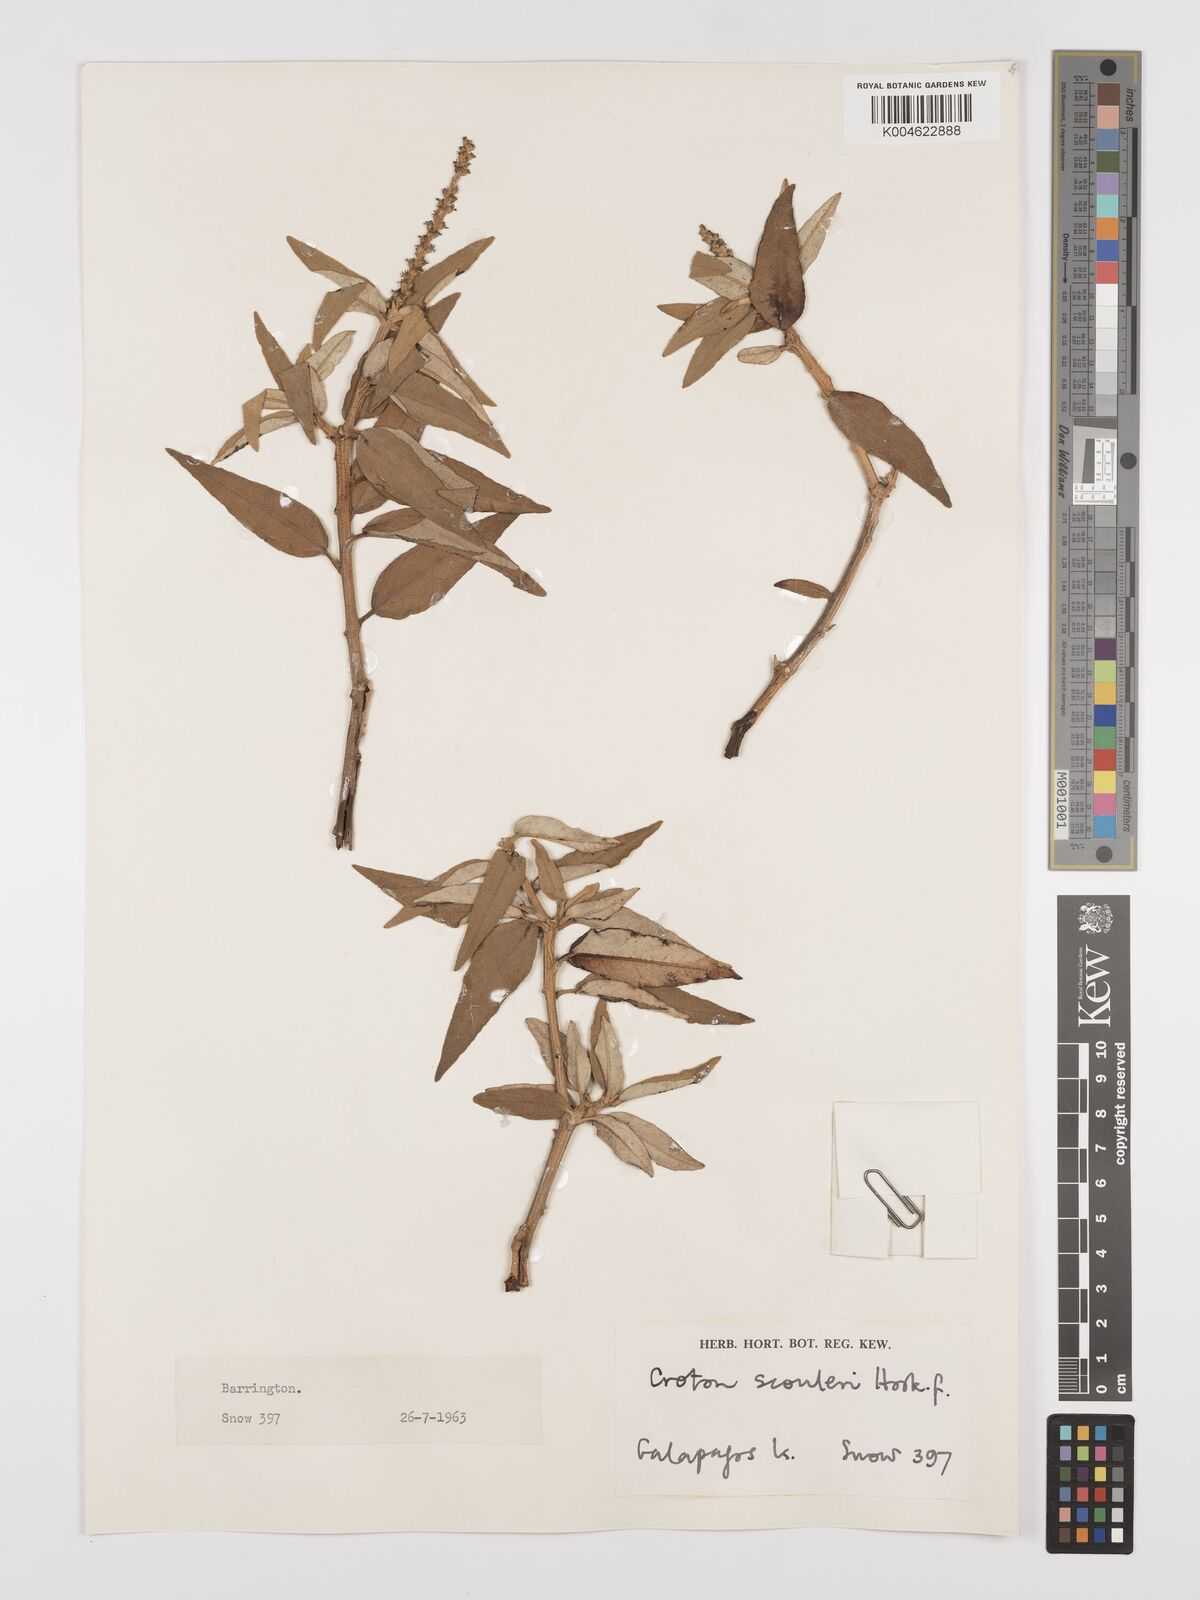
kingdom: Plantae
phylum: Tracheophyta
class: Magnoliopsida
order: Malpighiales
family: Euphorbiaceae
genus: Croton
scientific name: Croton scouleri
